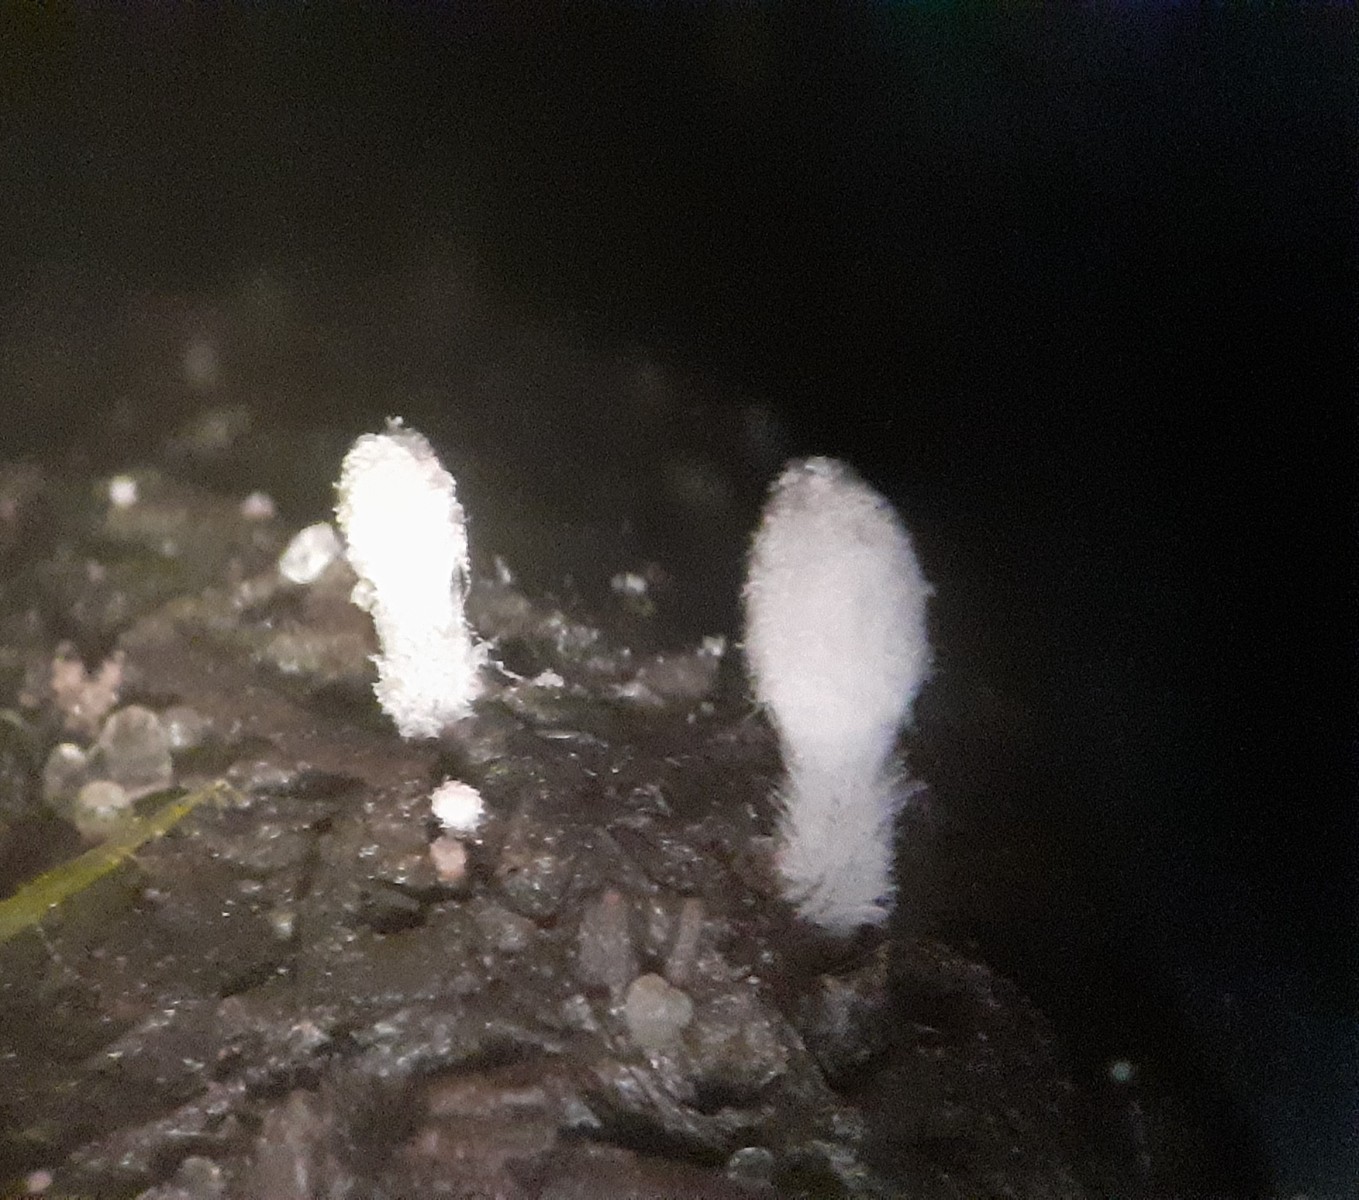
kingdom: Fungi
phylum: Basidiomycota
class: Agaricomycetes
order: Agaricales
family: Psathyrellaceae
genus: Coprinopsis
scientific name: Coprinopsis stercorea
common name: pjusket blækhat
